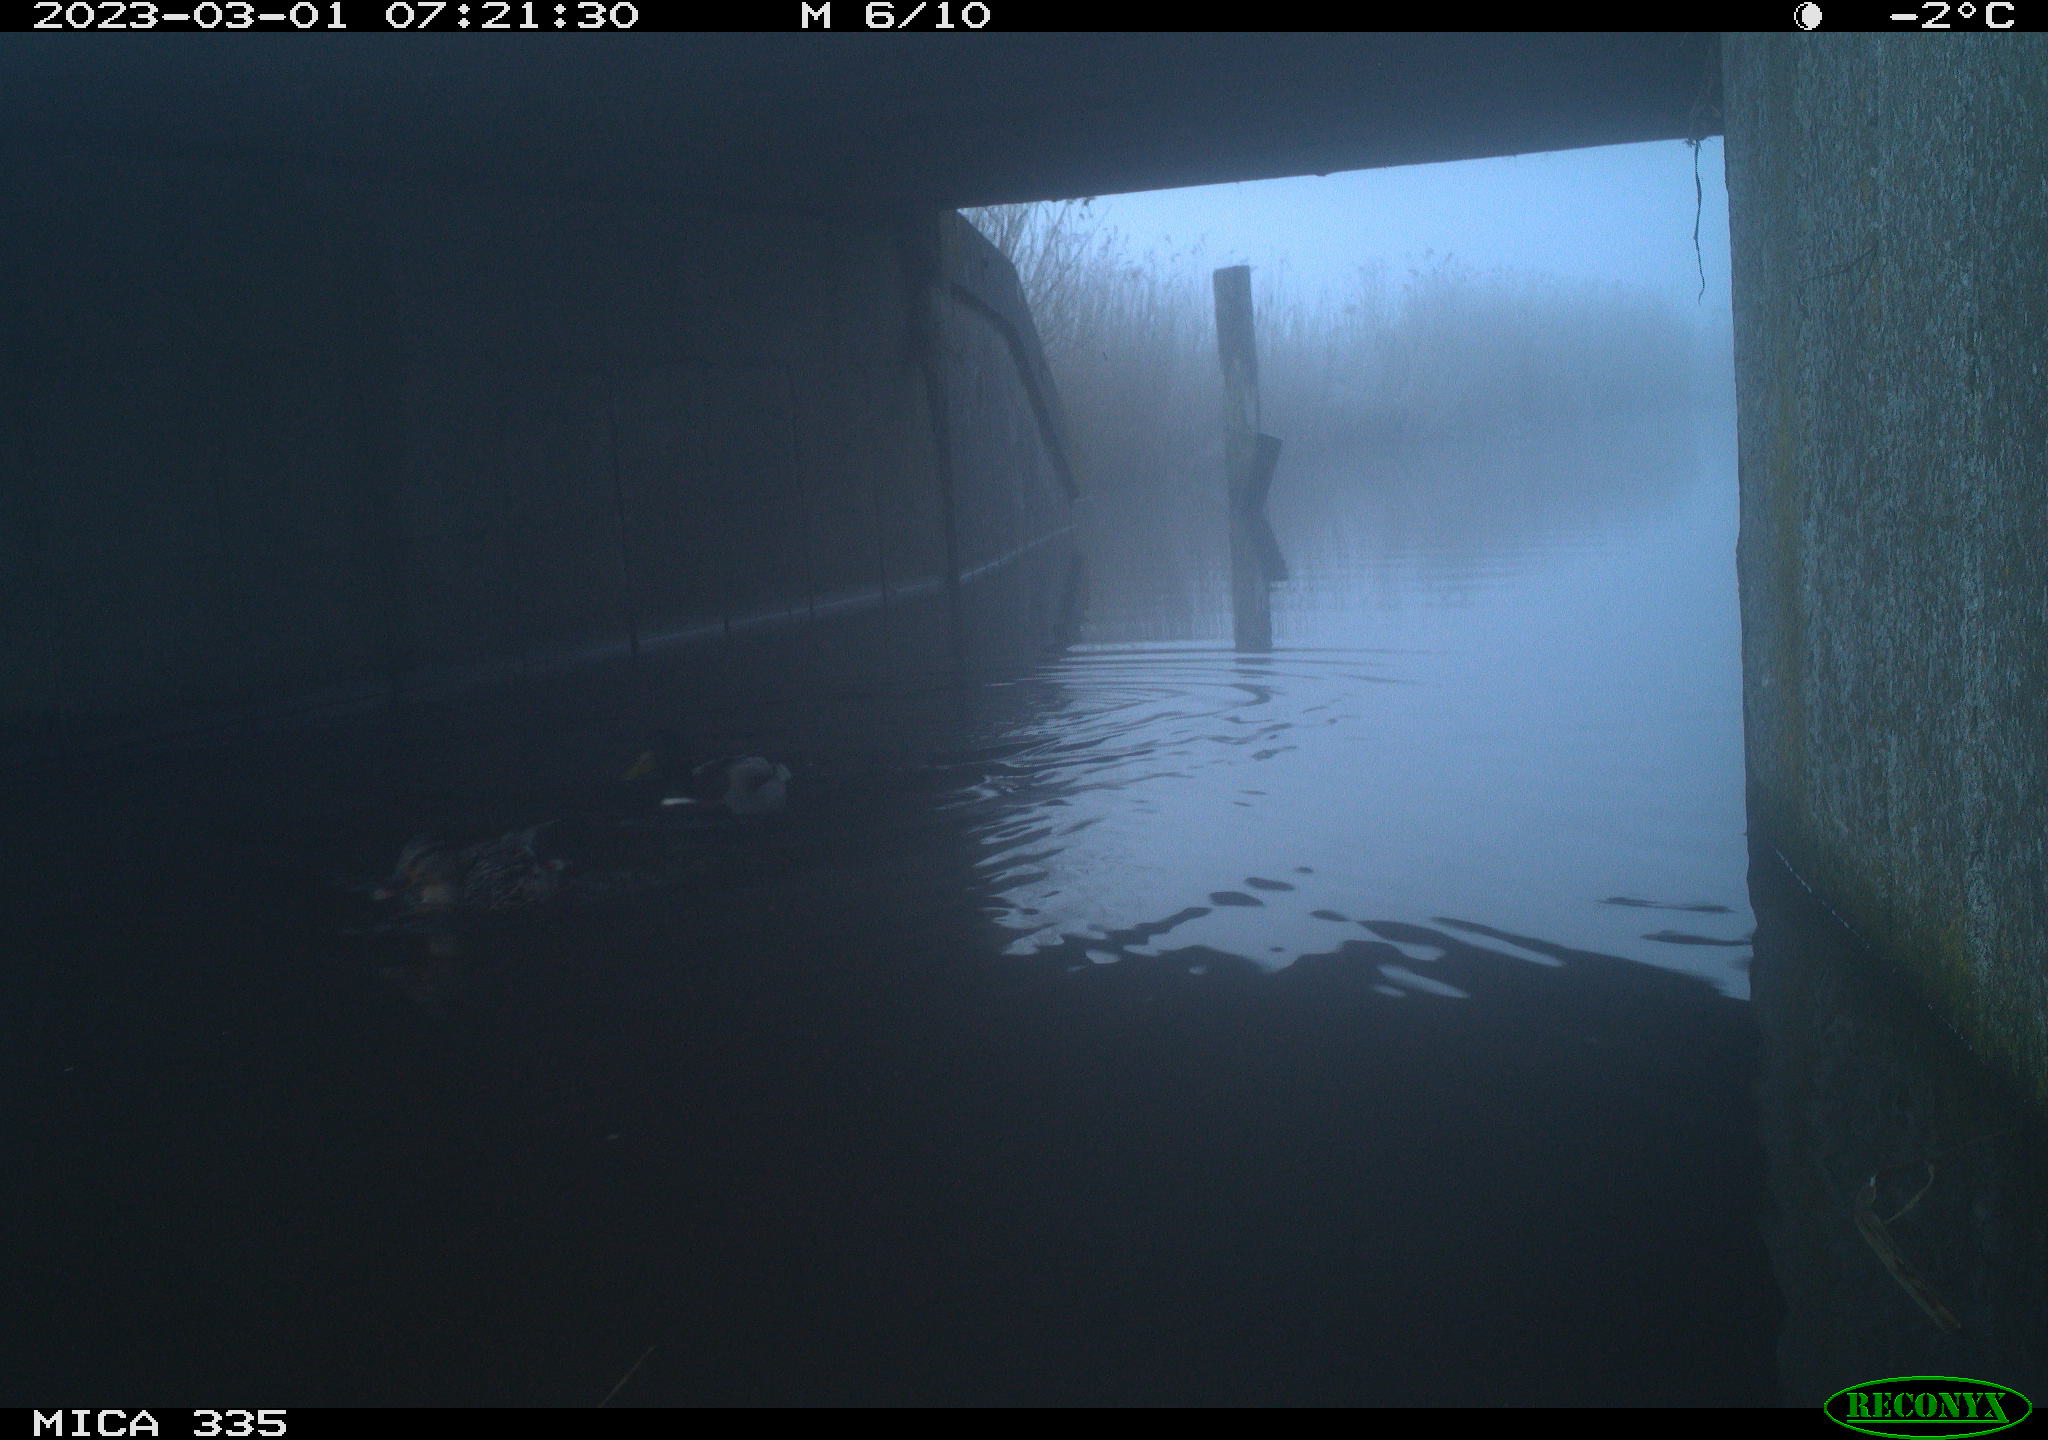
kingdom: Animalia
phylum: Chordata
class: Aves
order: Anseriformes
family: Anatidae
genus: Anas
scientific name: Anas
